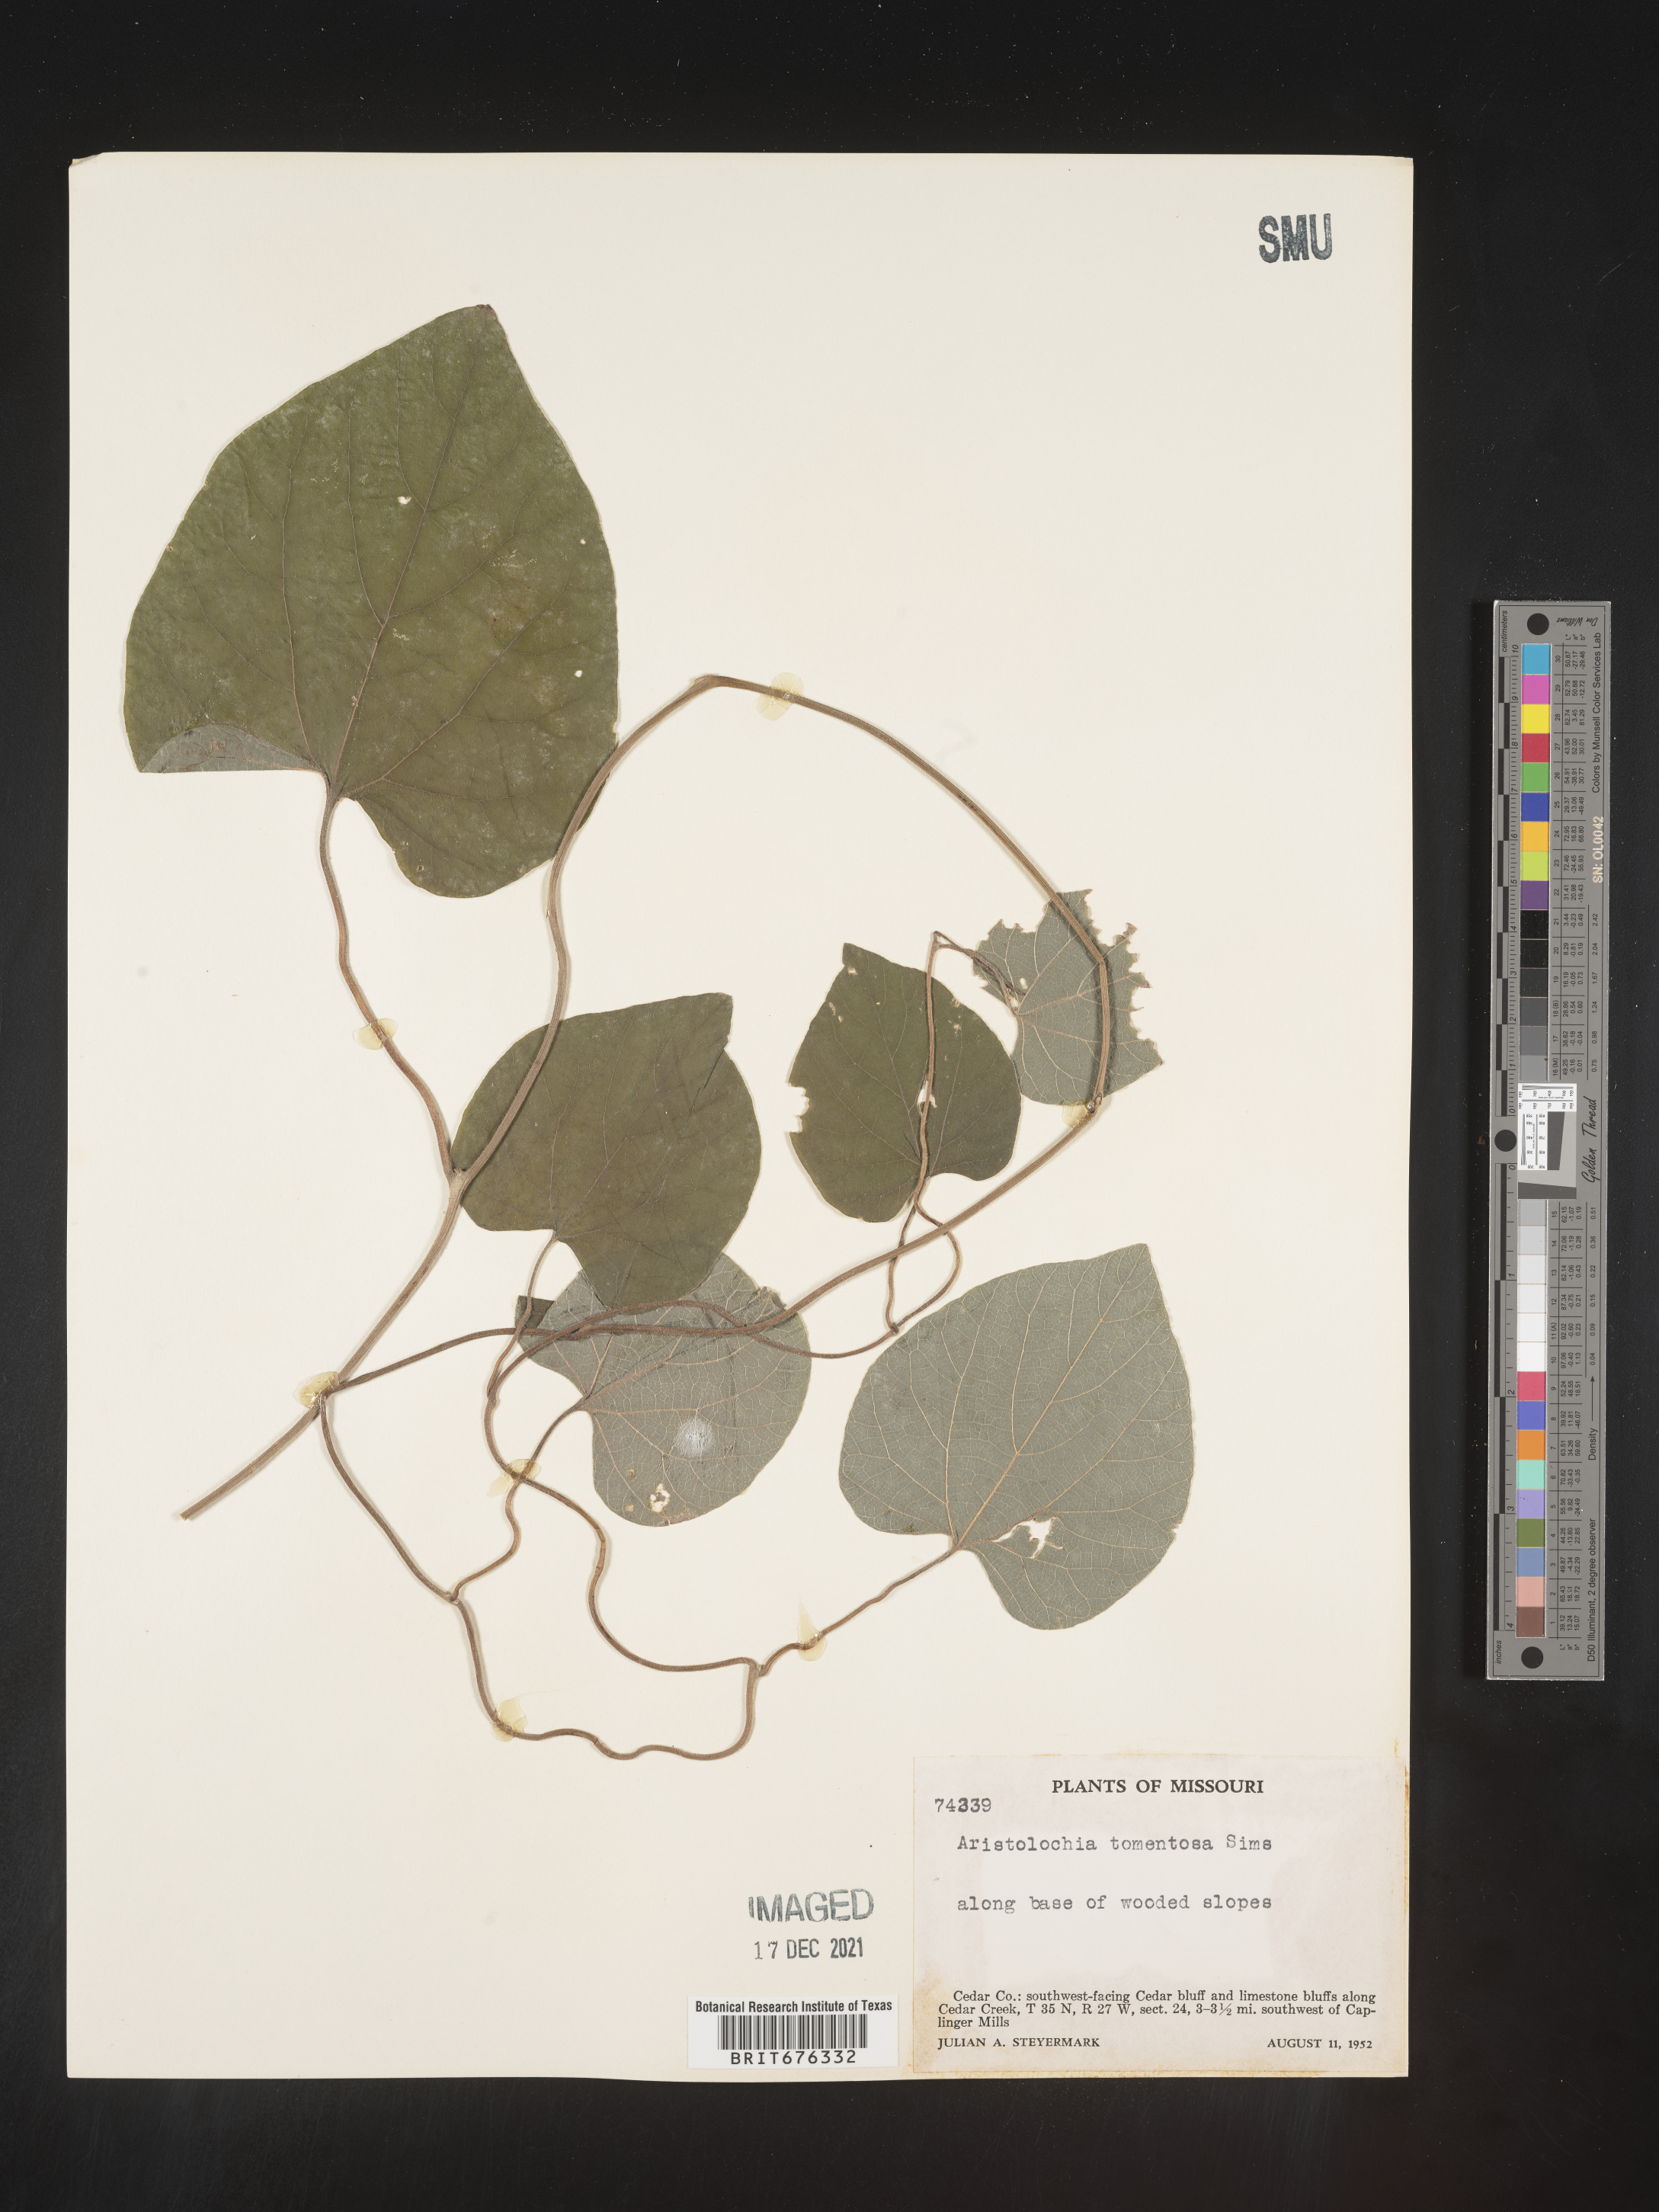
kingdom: Plantae
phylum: Tracheophyta
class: Magnoliopsida
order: Piperales
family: Aristolochiaceae
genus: Isotrema
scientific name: Isotrema tomentosum
